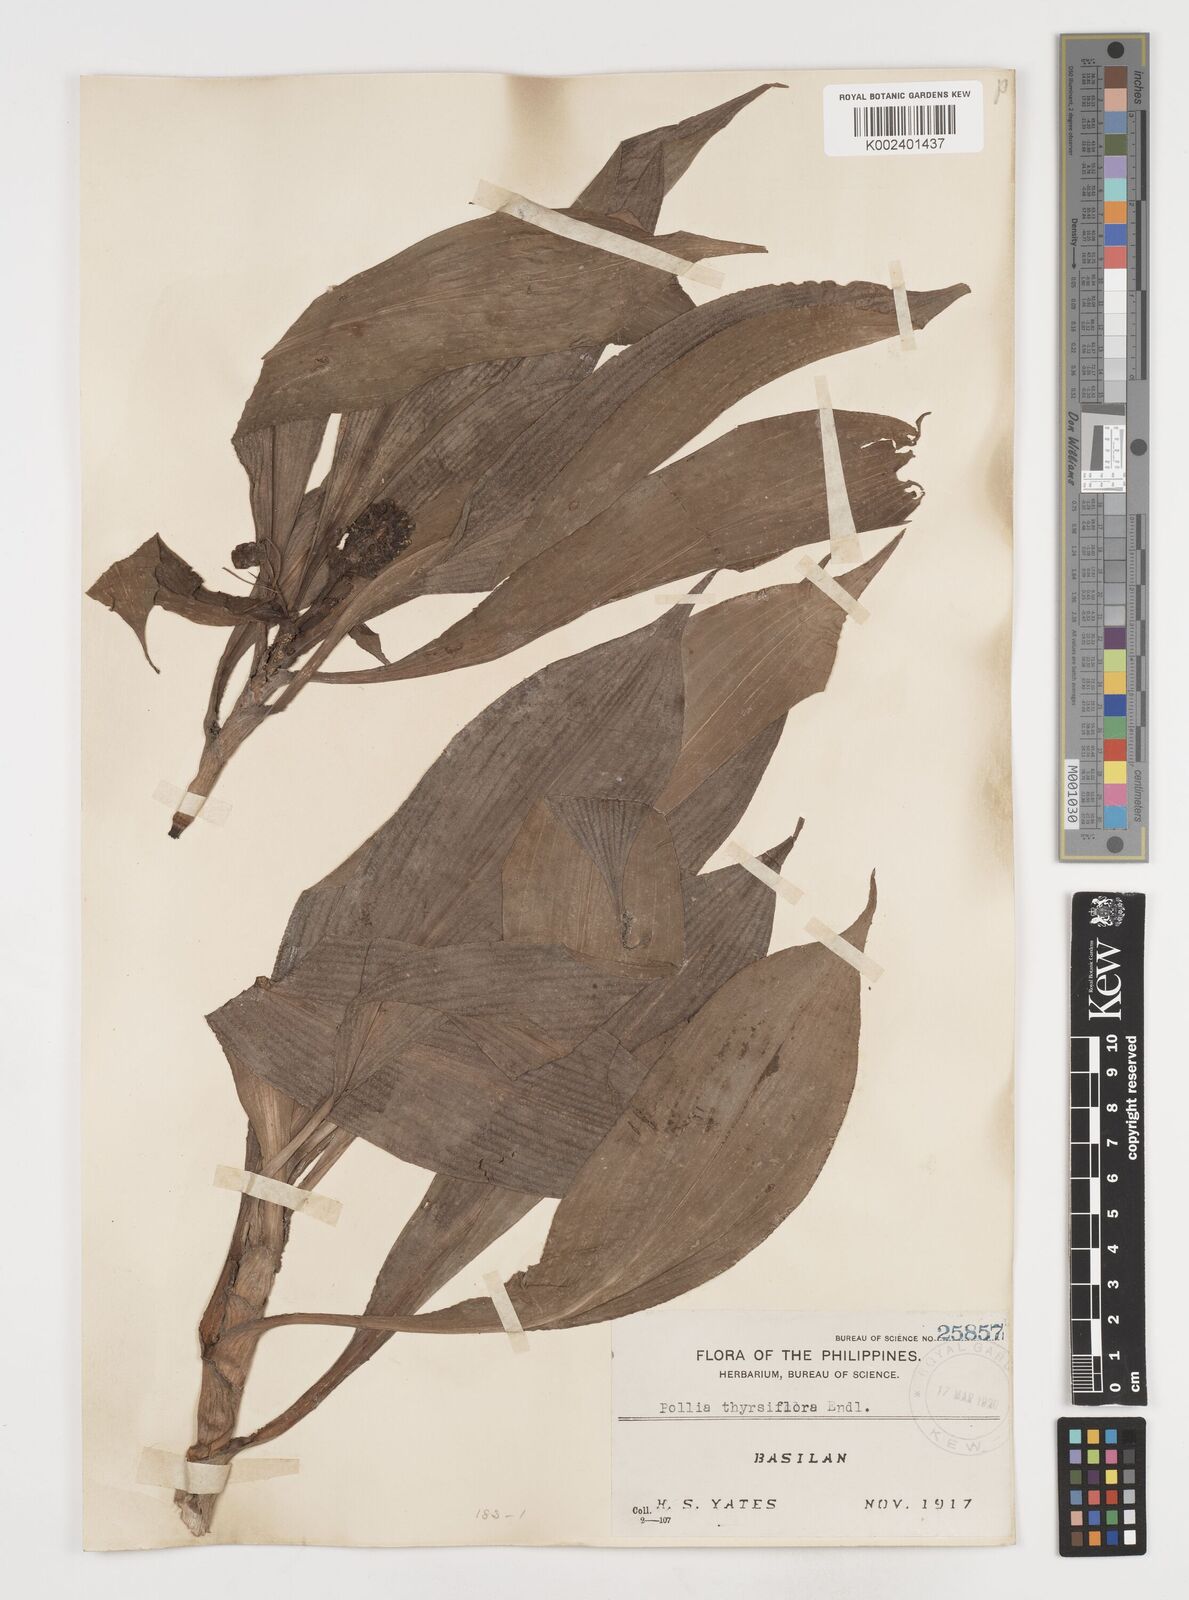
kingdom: Plantae
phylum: Tracheophyta
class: Liliopsida
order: Commelinales
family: Commelinaceae
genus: Pollia
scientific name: Pollia thyrsiflora
